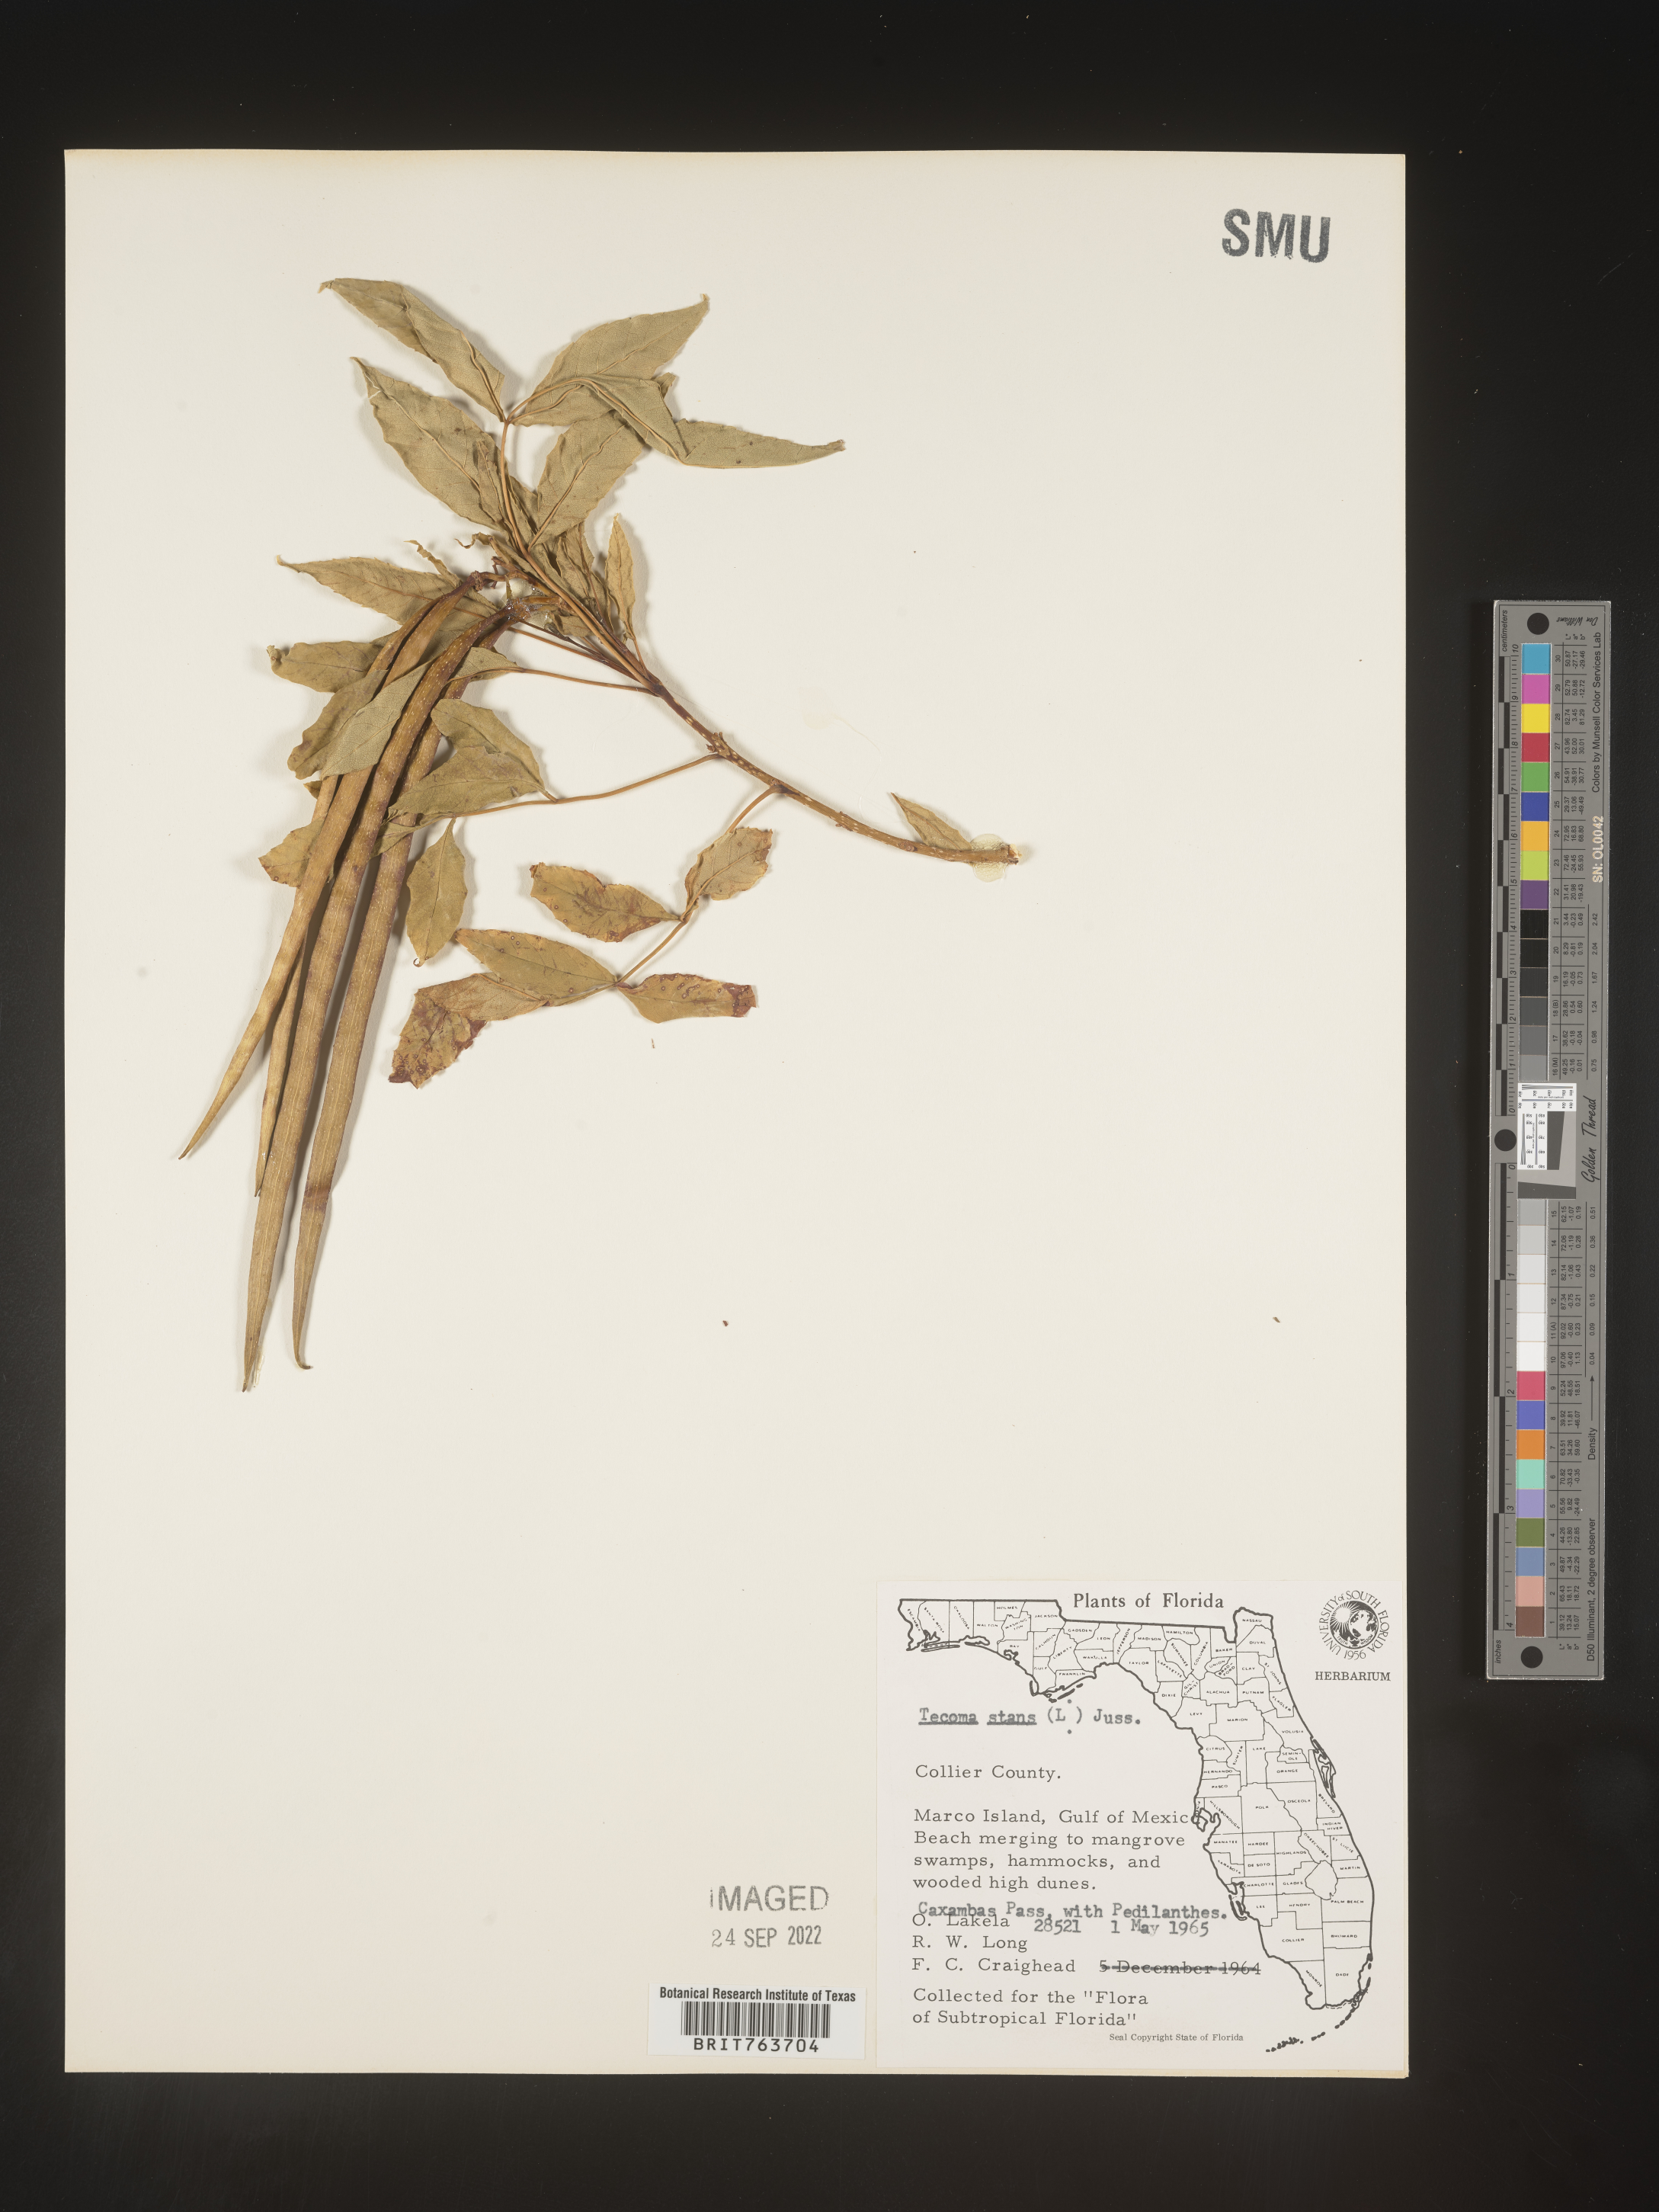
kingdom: Plantae
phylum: Tracheophyta
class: Magnoliopsida
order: Lamiales
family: Bignoniaceae
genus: Tecoma
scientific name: Tecoma
